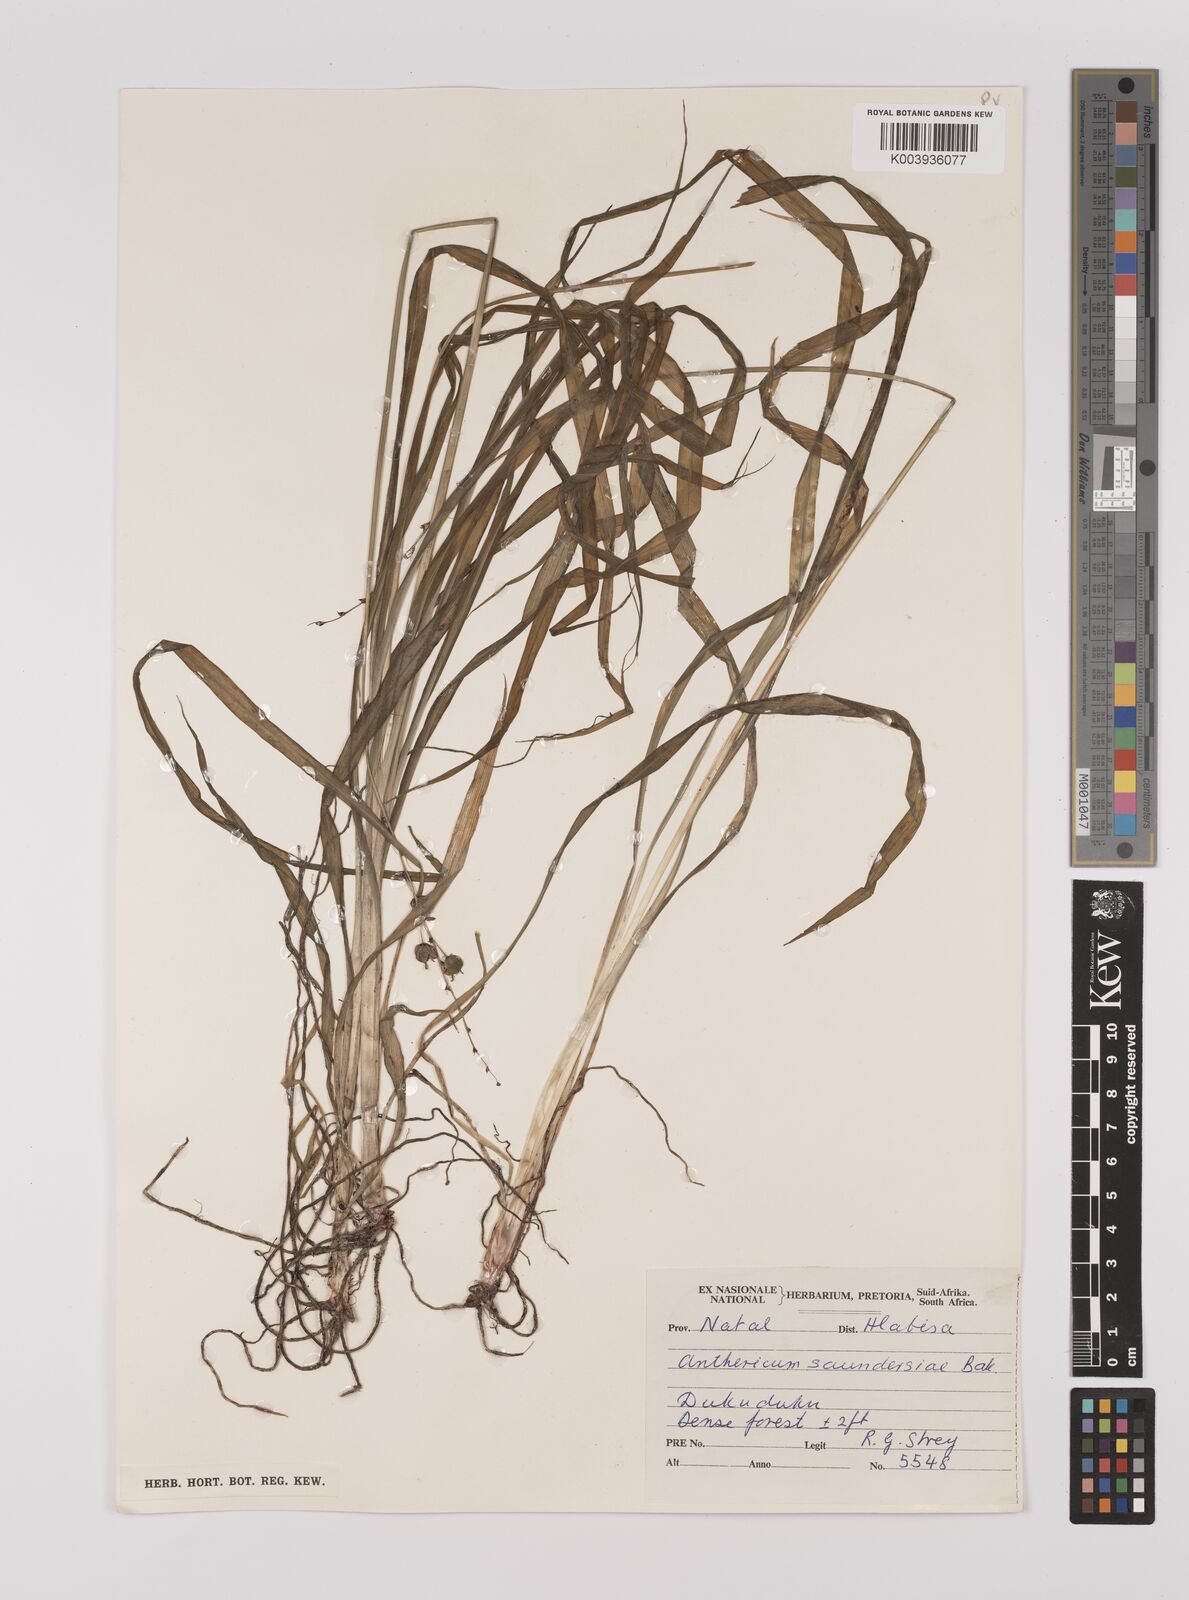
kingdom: Plantae
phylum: Tracheophyta
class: Liliopsida
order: Asparagales
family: Asparagaceae
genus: Chlorophytum
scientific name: Chlorophytum saundersiae
